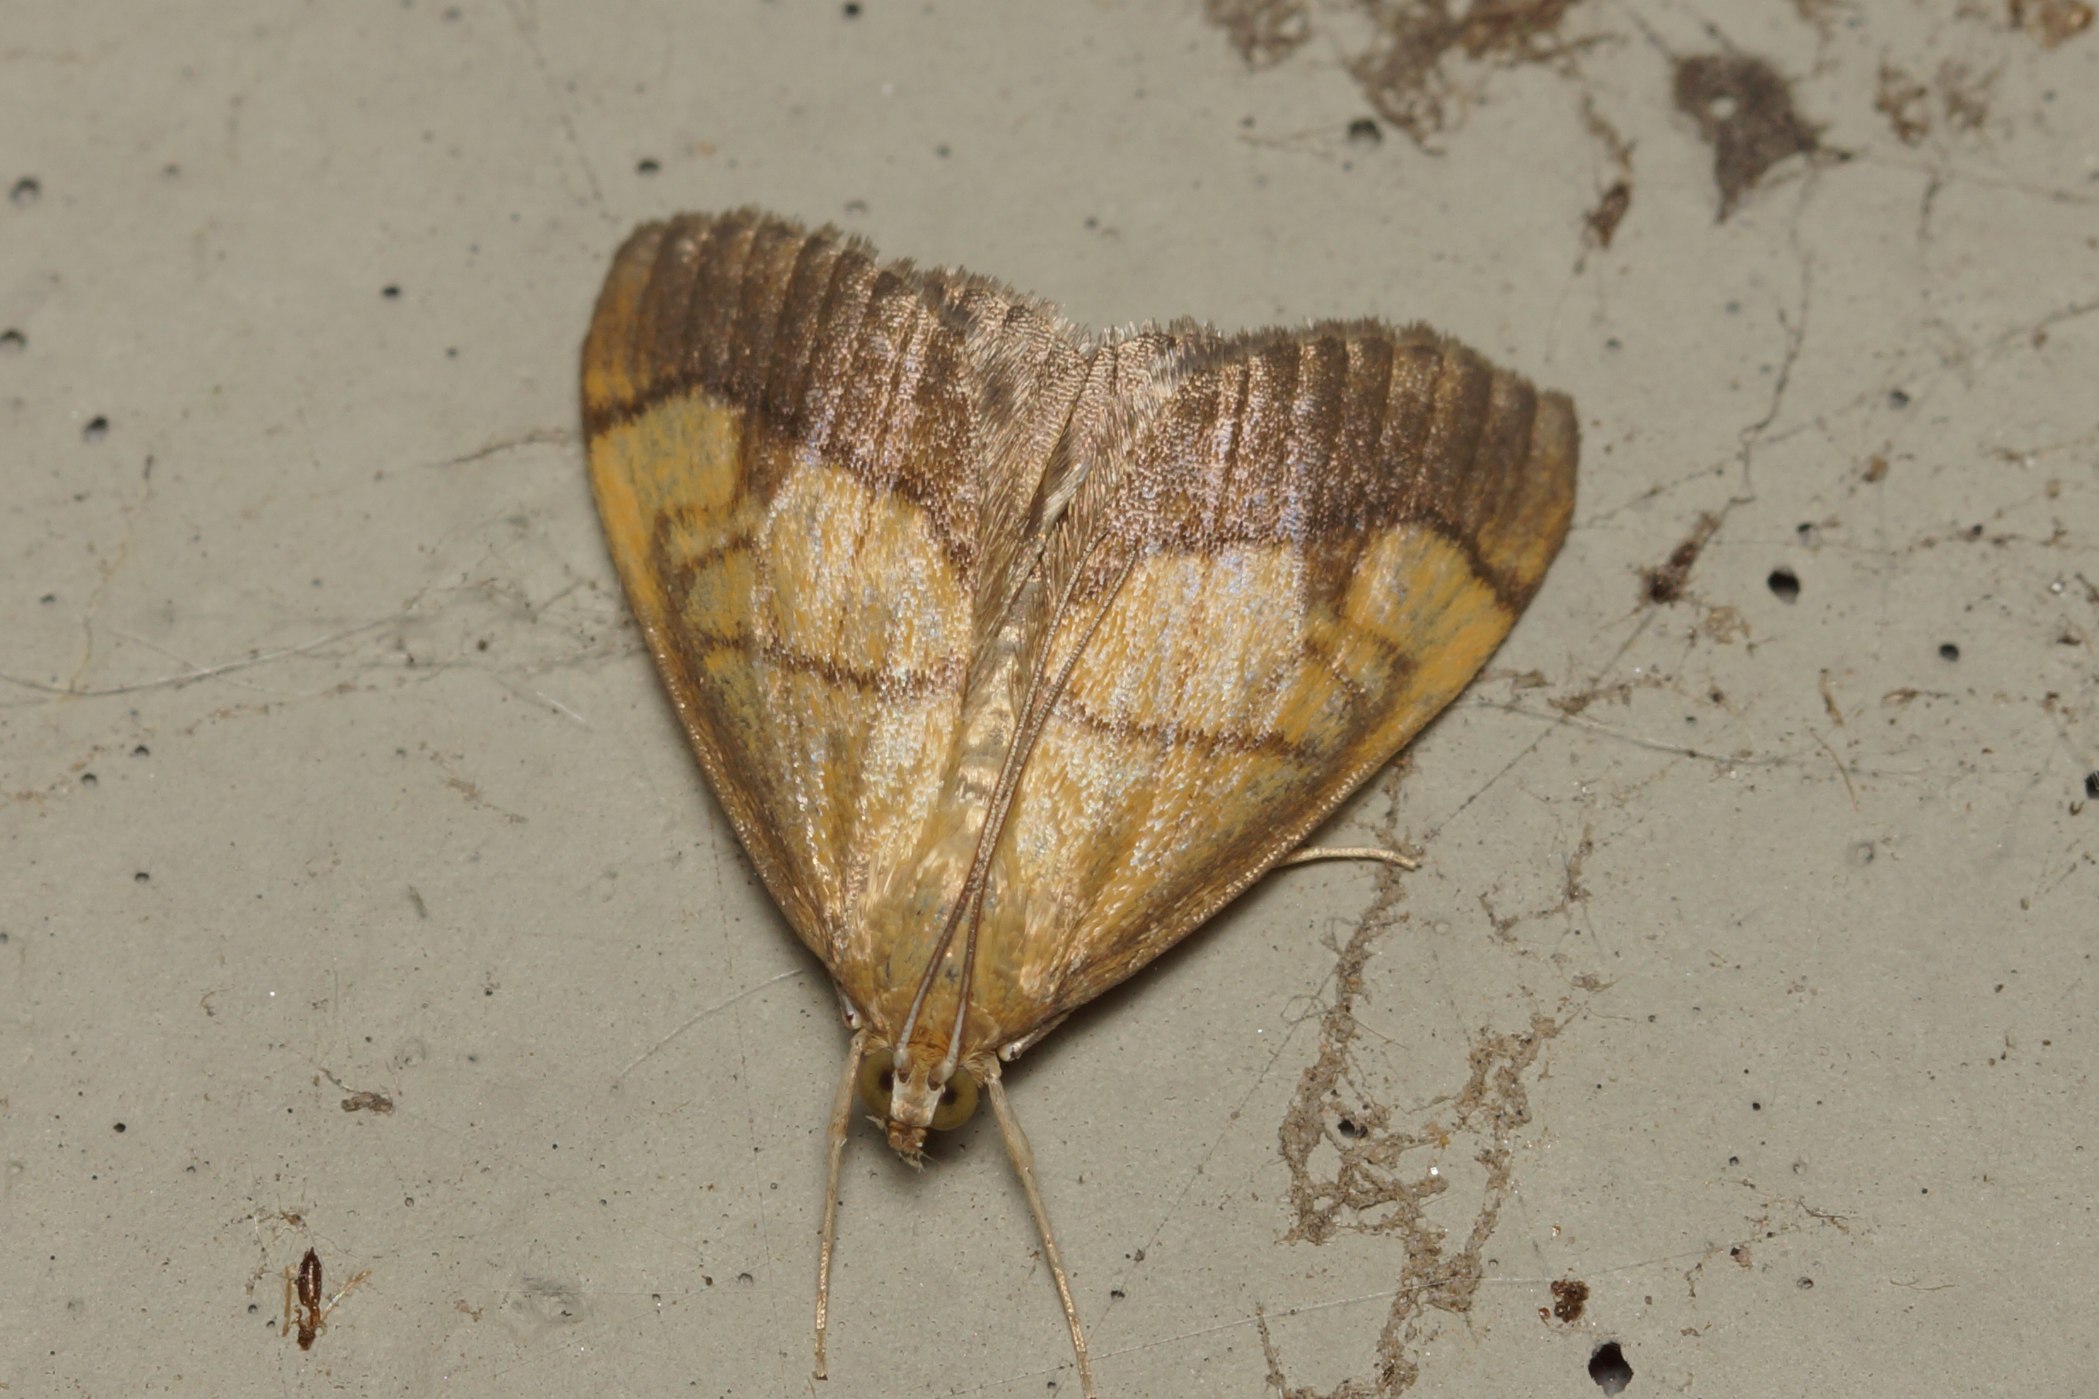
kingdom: Animalia
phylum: Arthropoda
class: Insecta
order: Lepidoptera
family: Crambidae
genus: Evergestis
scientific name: Evergestis limbata
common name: Løgkarsehalvmøl
